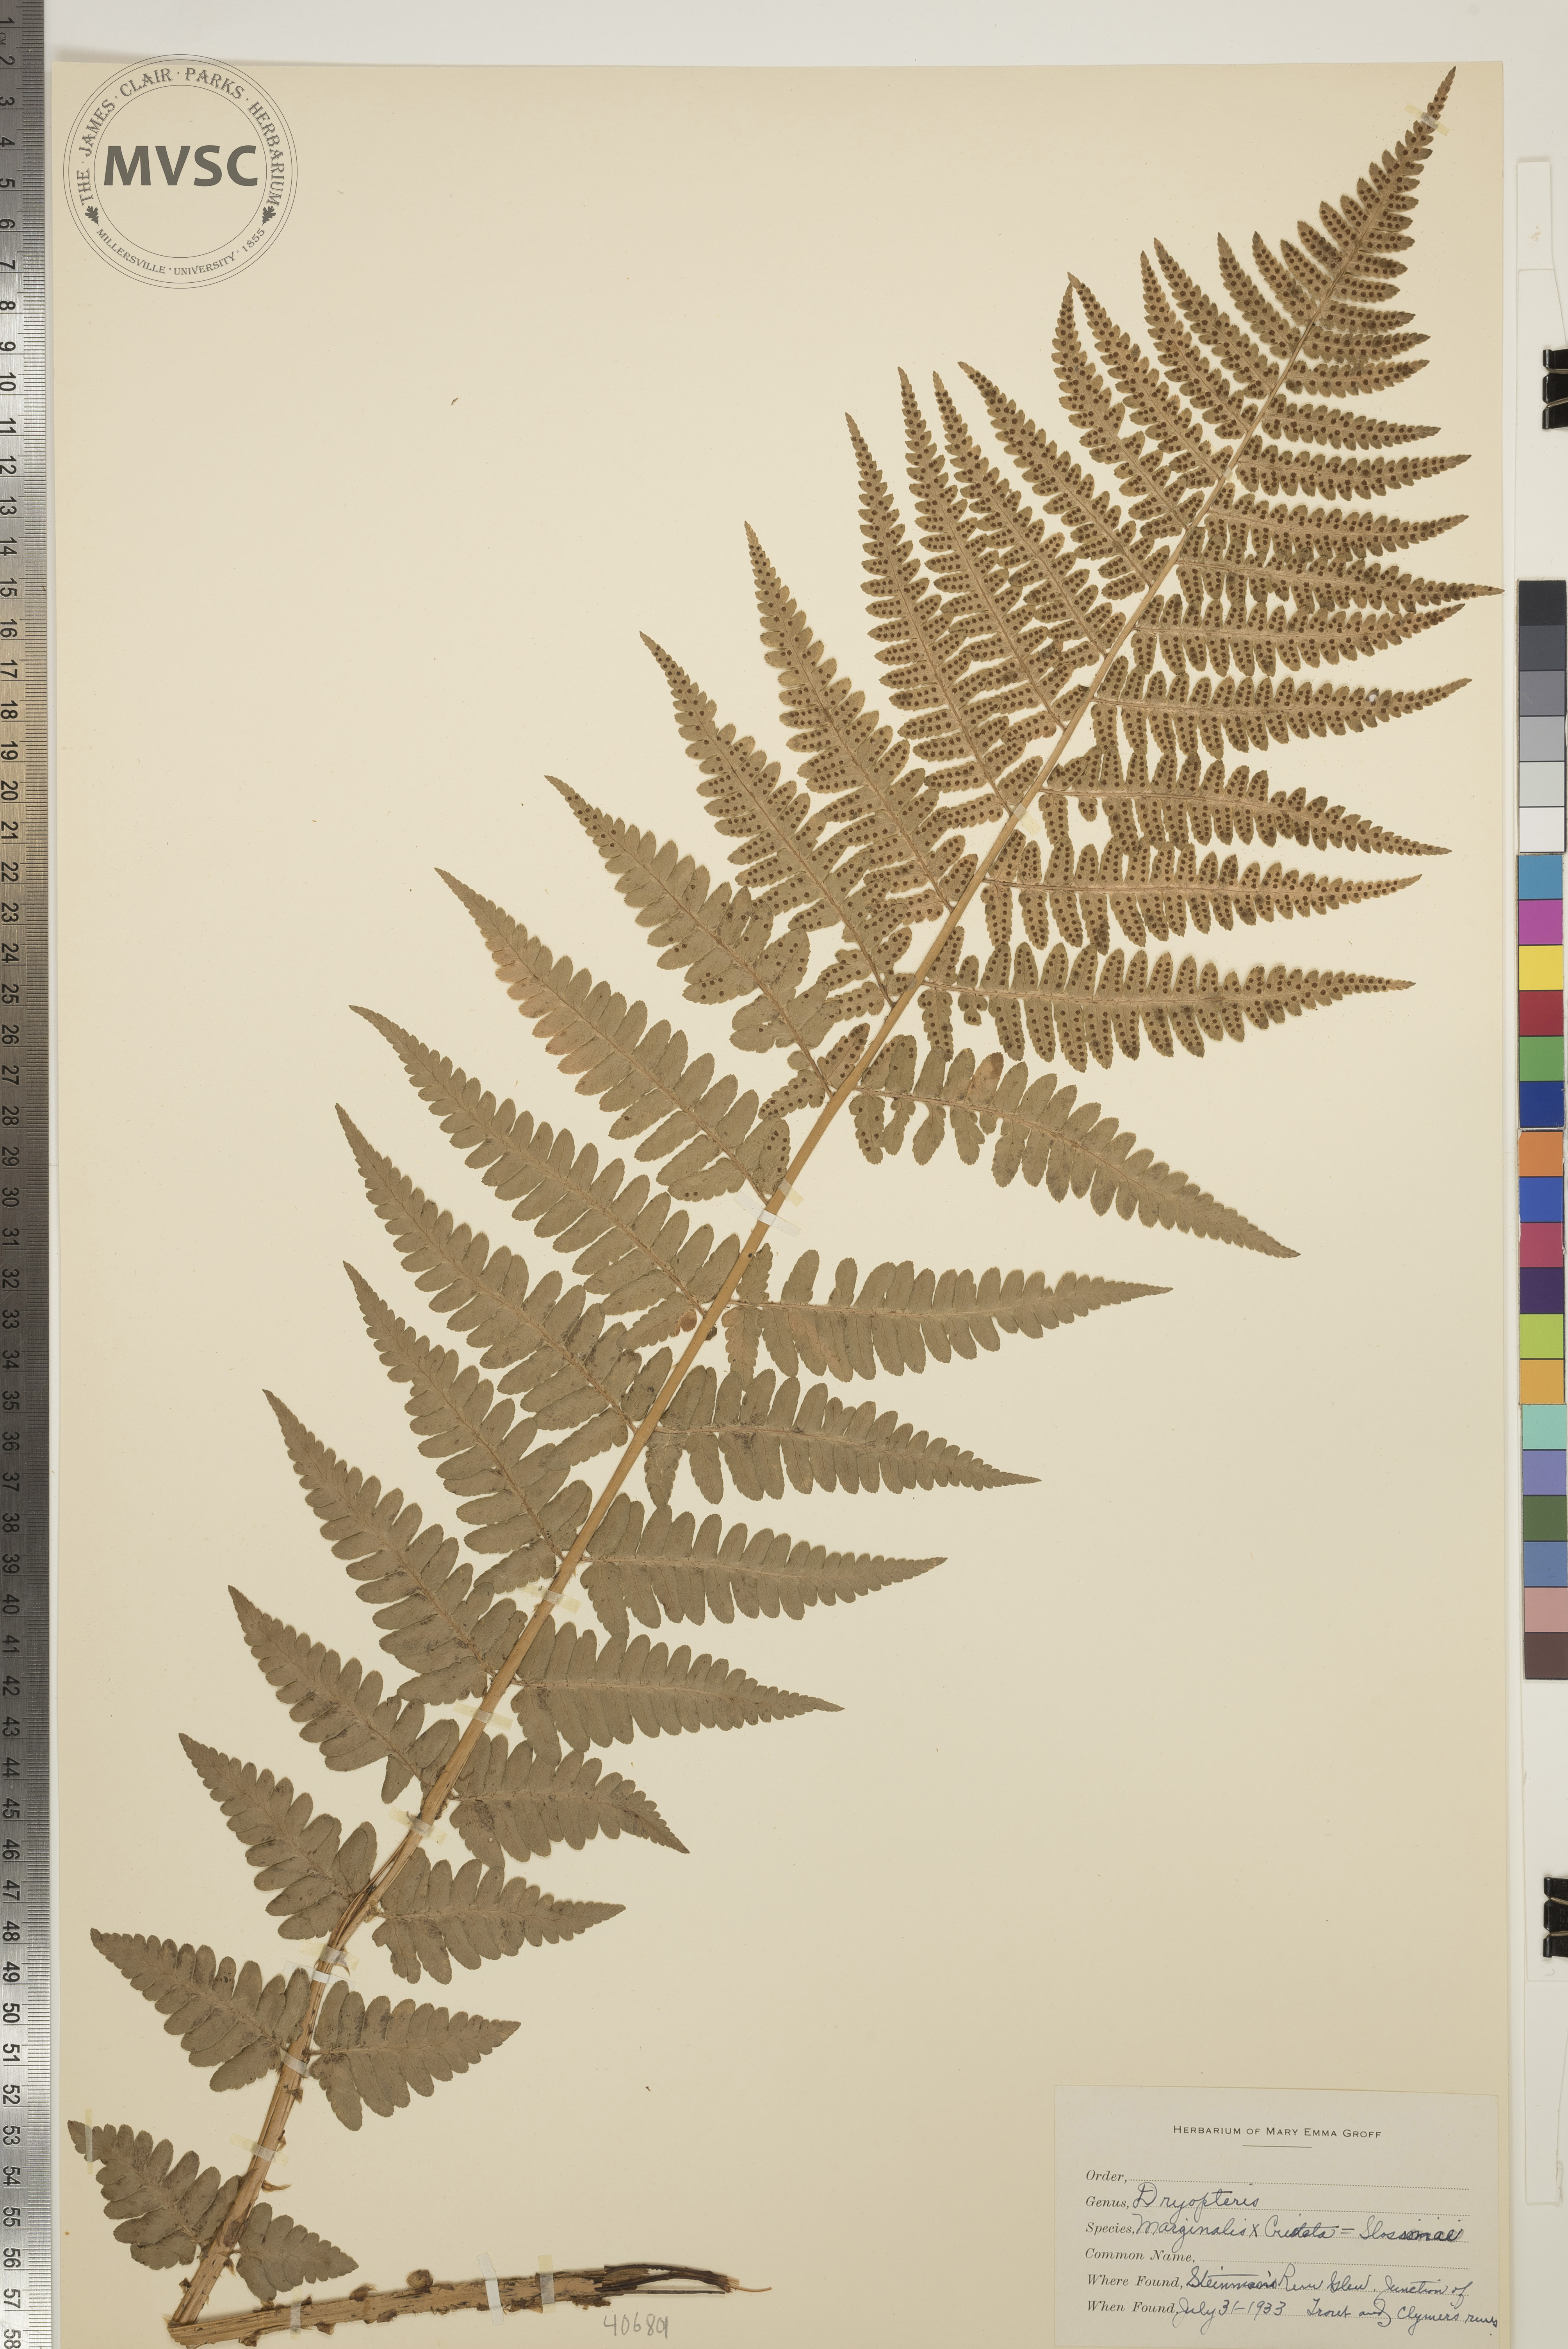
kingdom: Plantae
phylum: Tracheophyta
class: Polypodiopsida
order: Polypodiales
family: Dryopteridaceae
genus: Dryopteris
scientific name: Dryopteris
